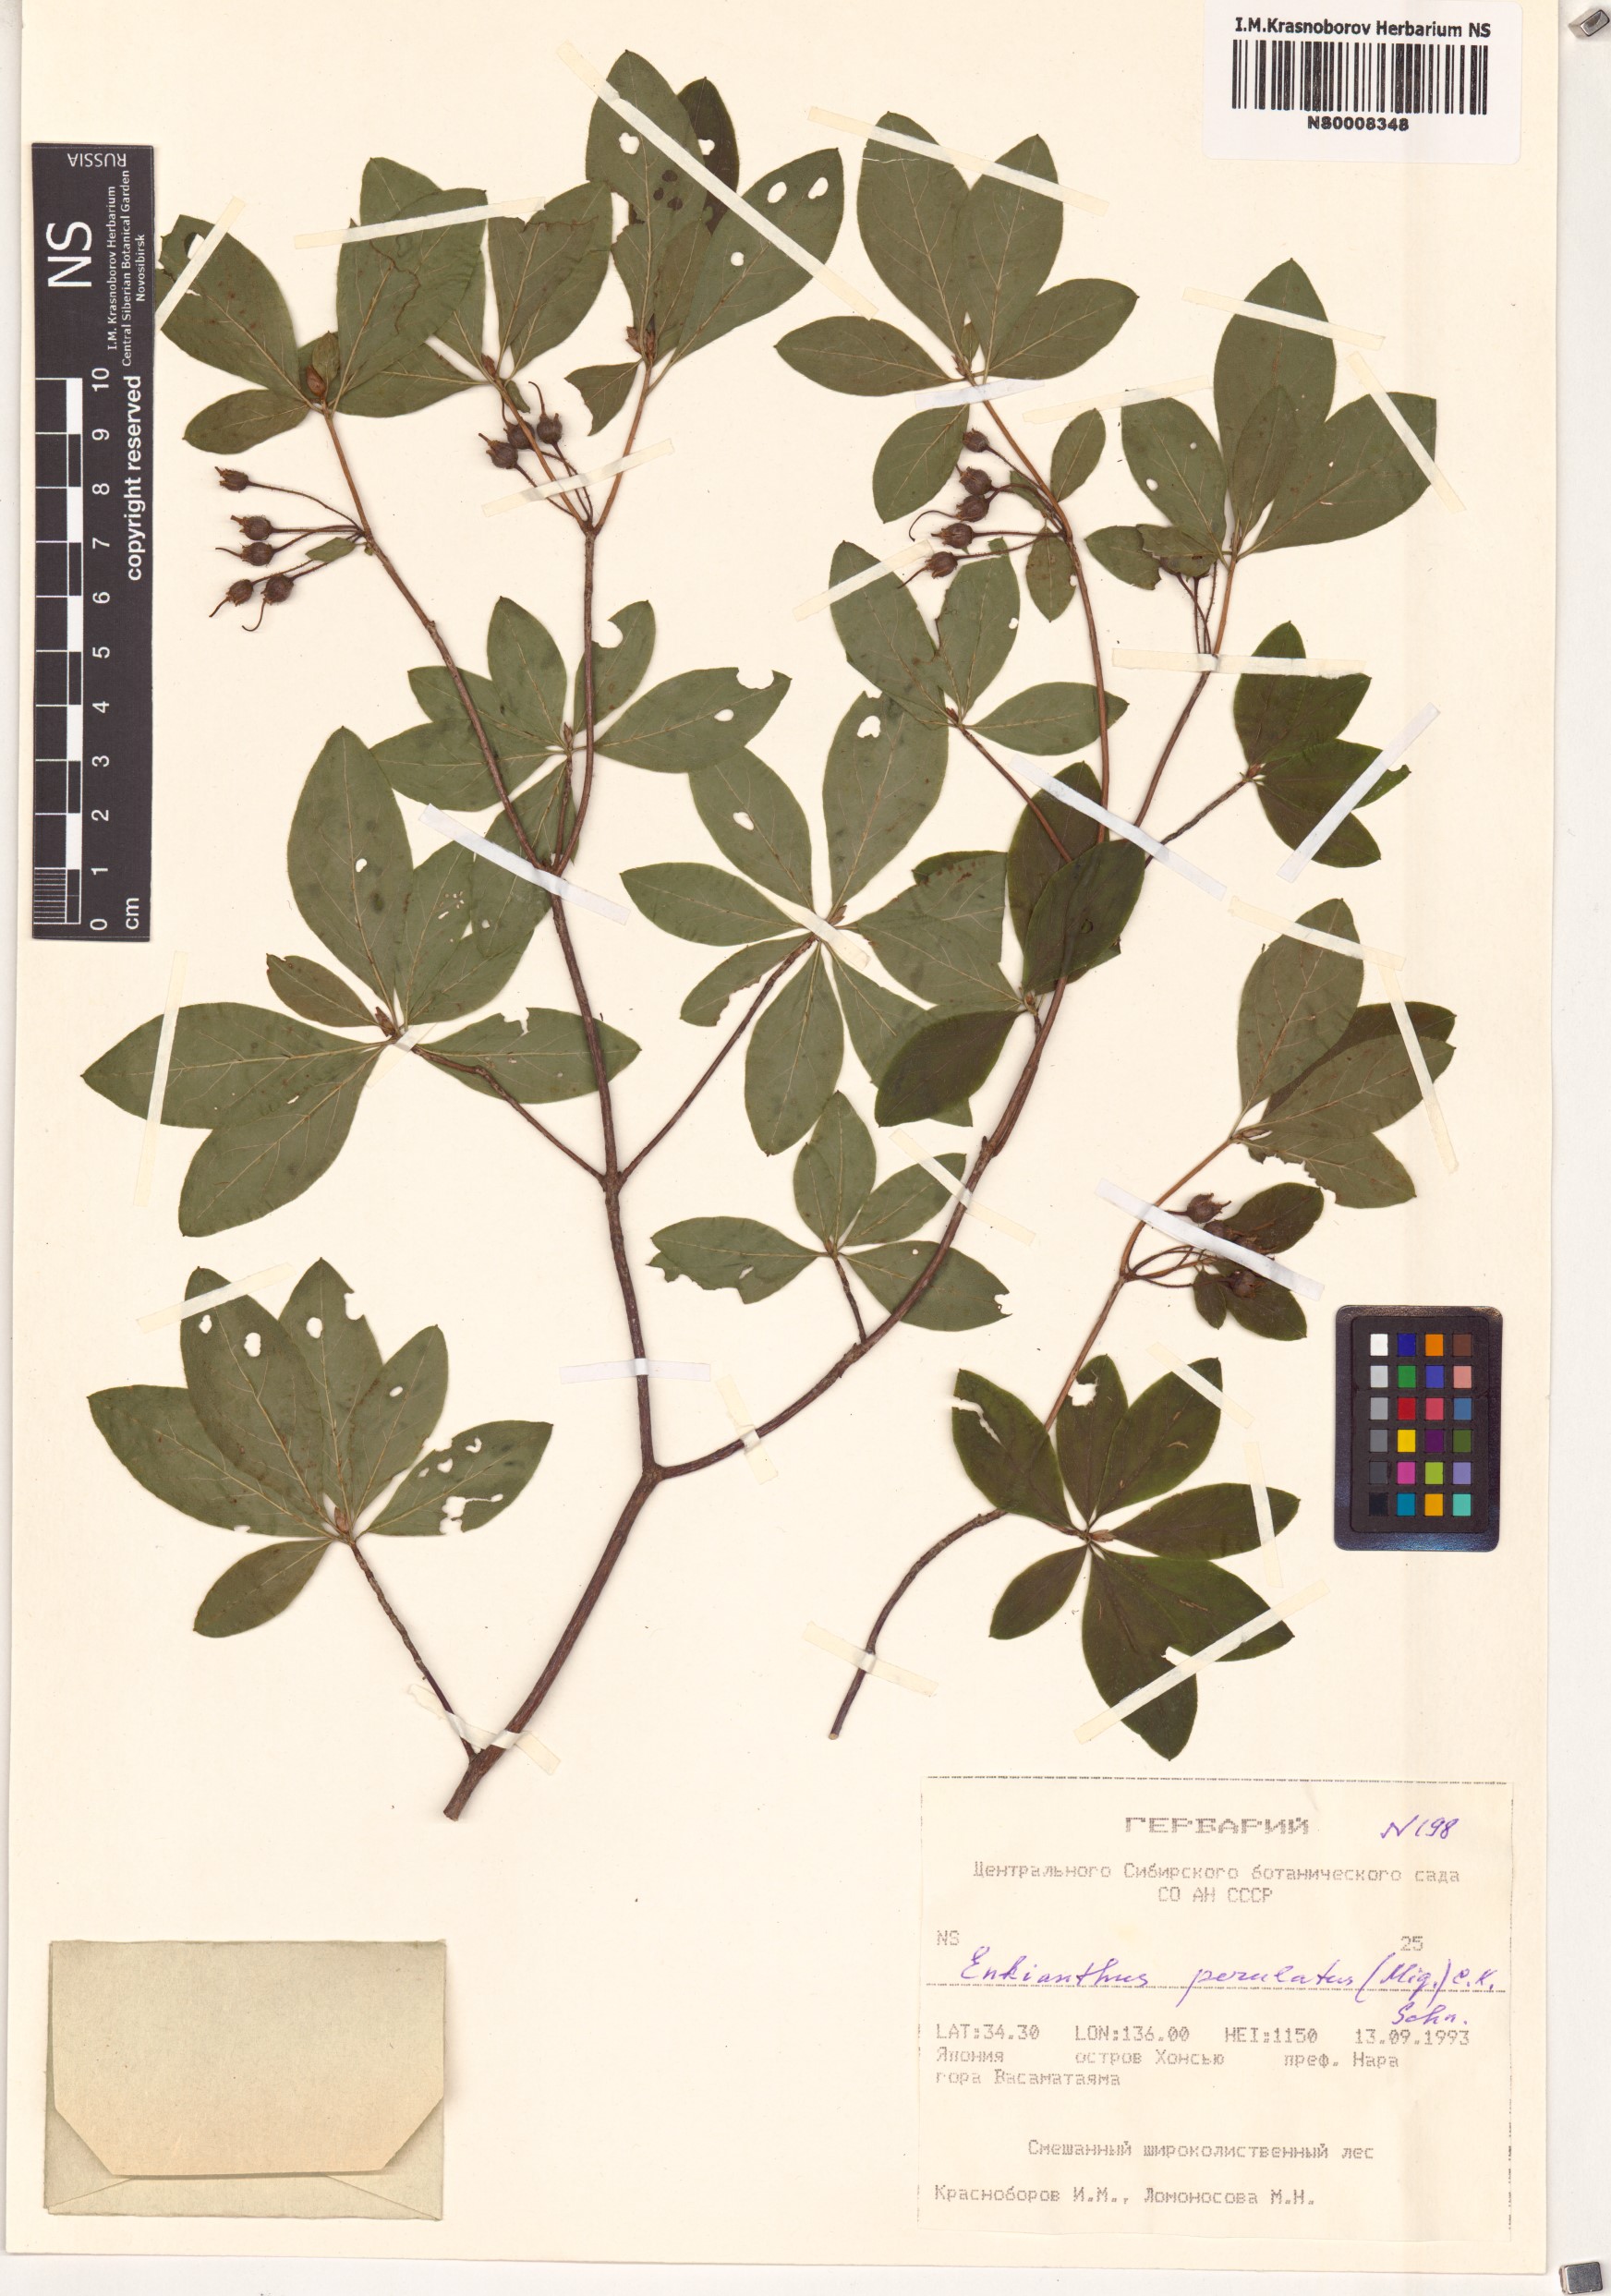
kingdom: Plantae
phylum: Tracheophyta
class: Magnoliopsida
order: Ericales
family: Ericaceae
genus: Enkianthus
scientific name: Enkianthus perulatus
